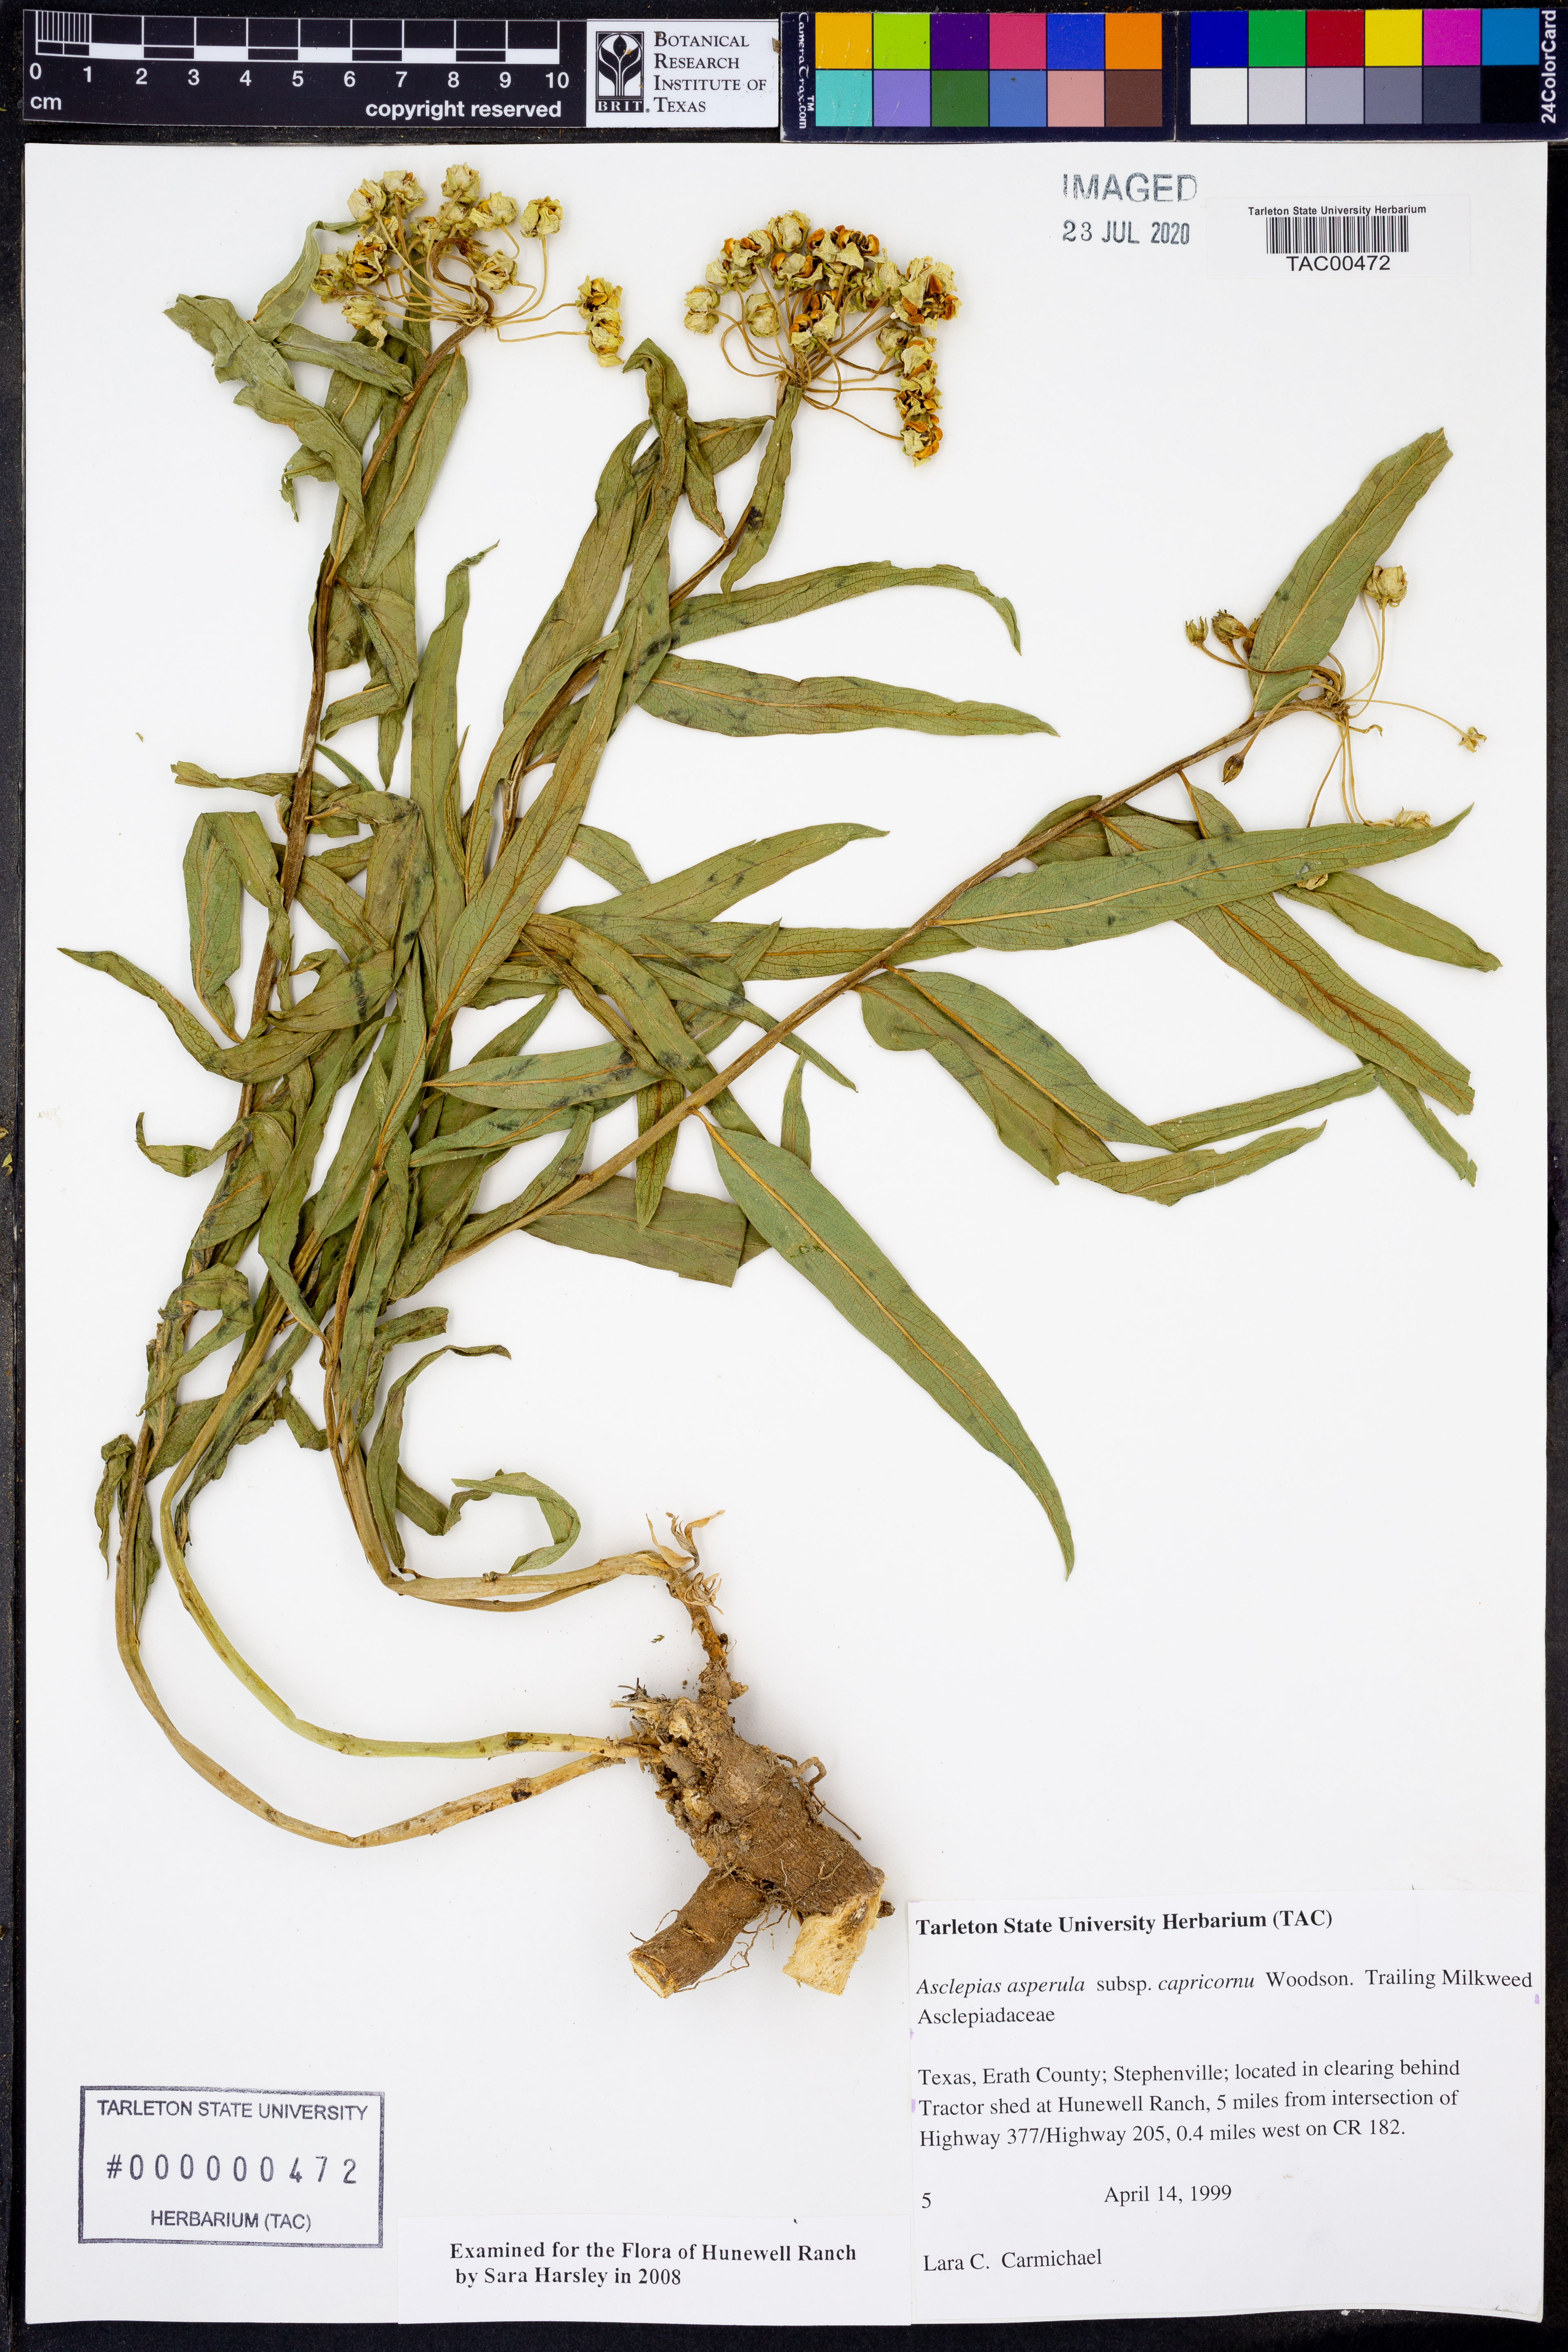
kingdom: Plantae
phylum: Tracheophyta
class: Magnoliopsida
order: Gentianales
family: Apocynaceae
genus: Asclepias
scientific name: Asclepias asperula
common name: Antelope horns
